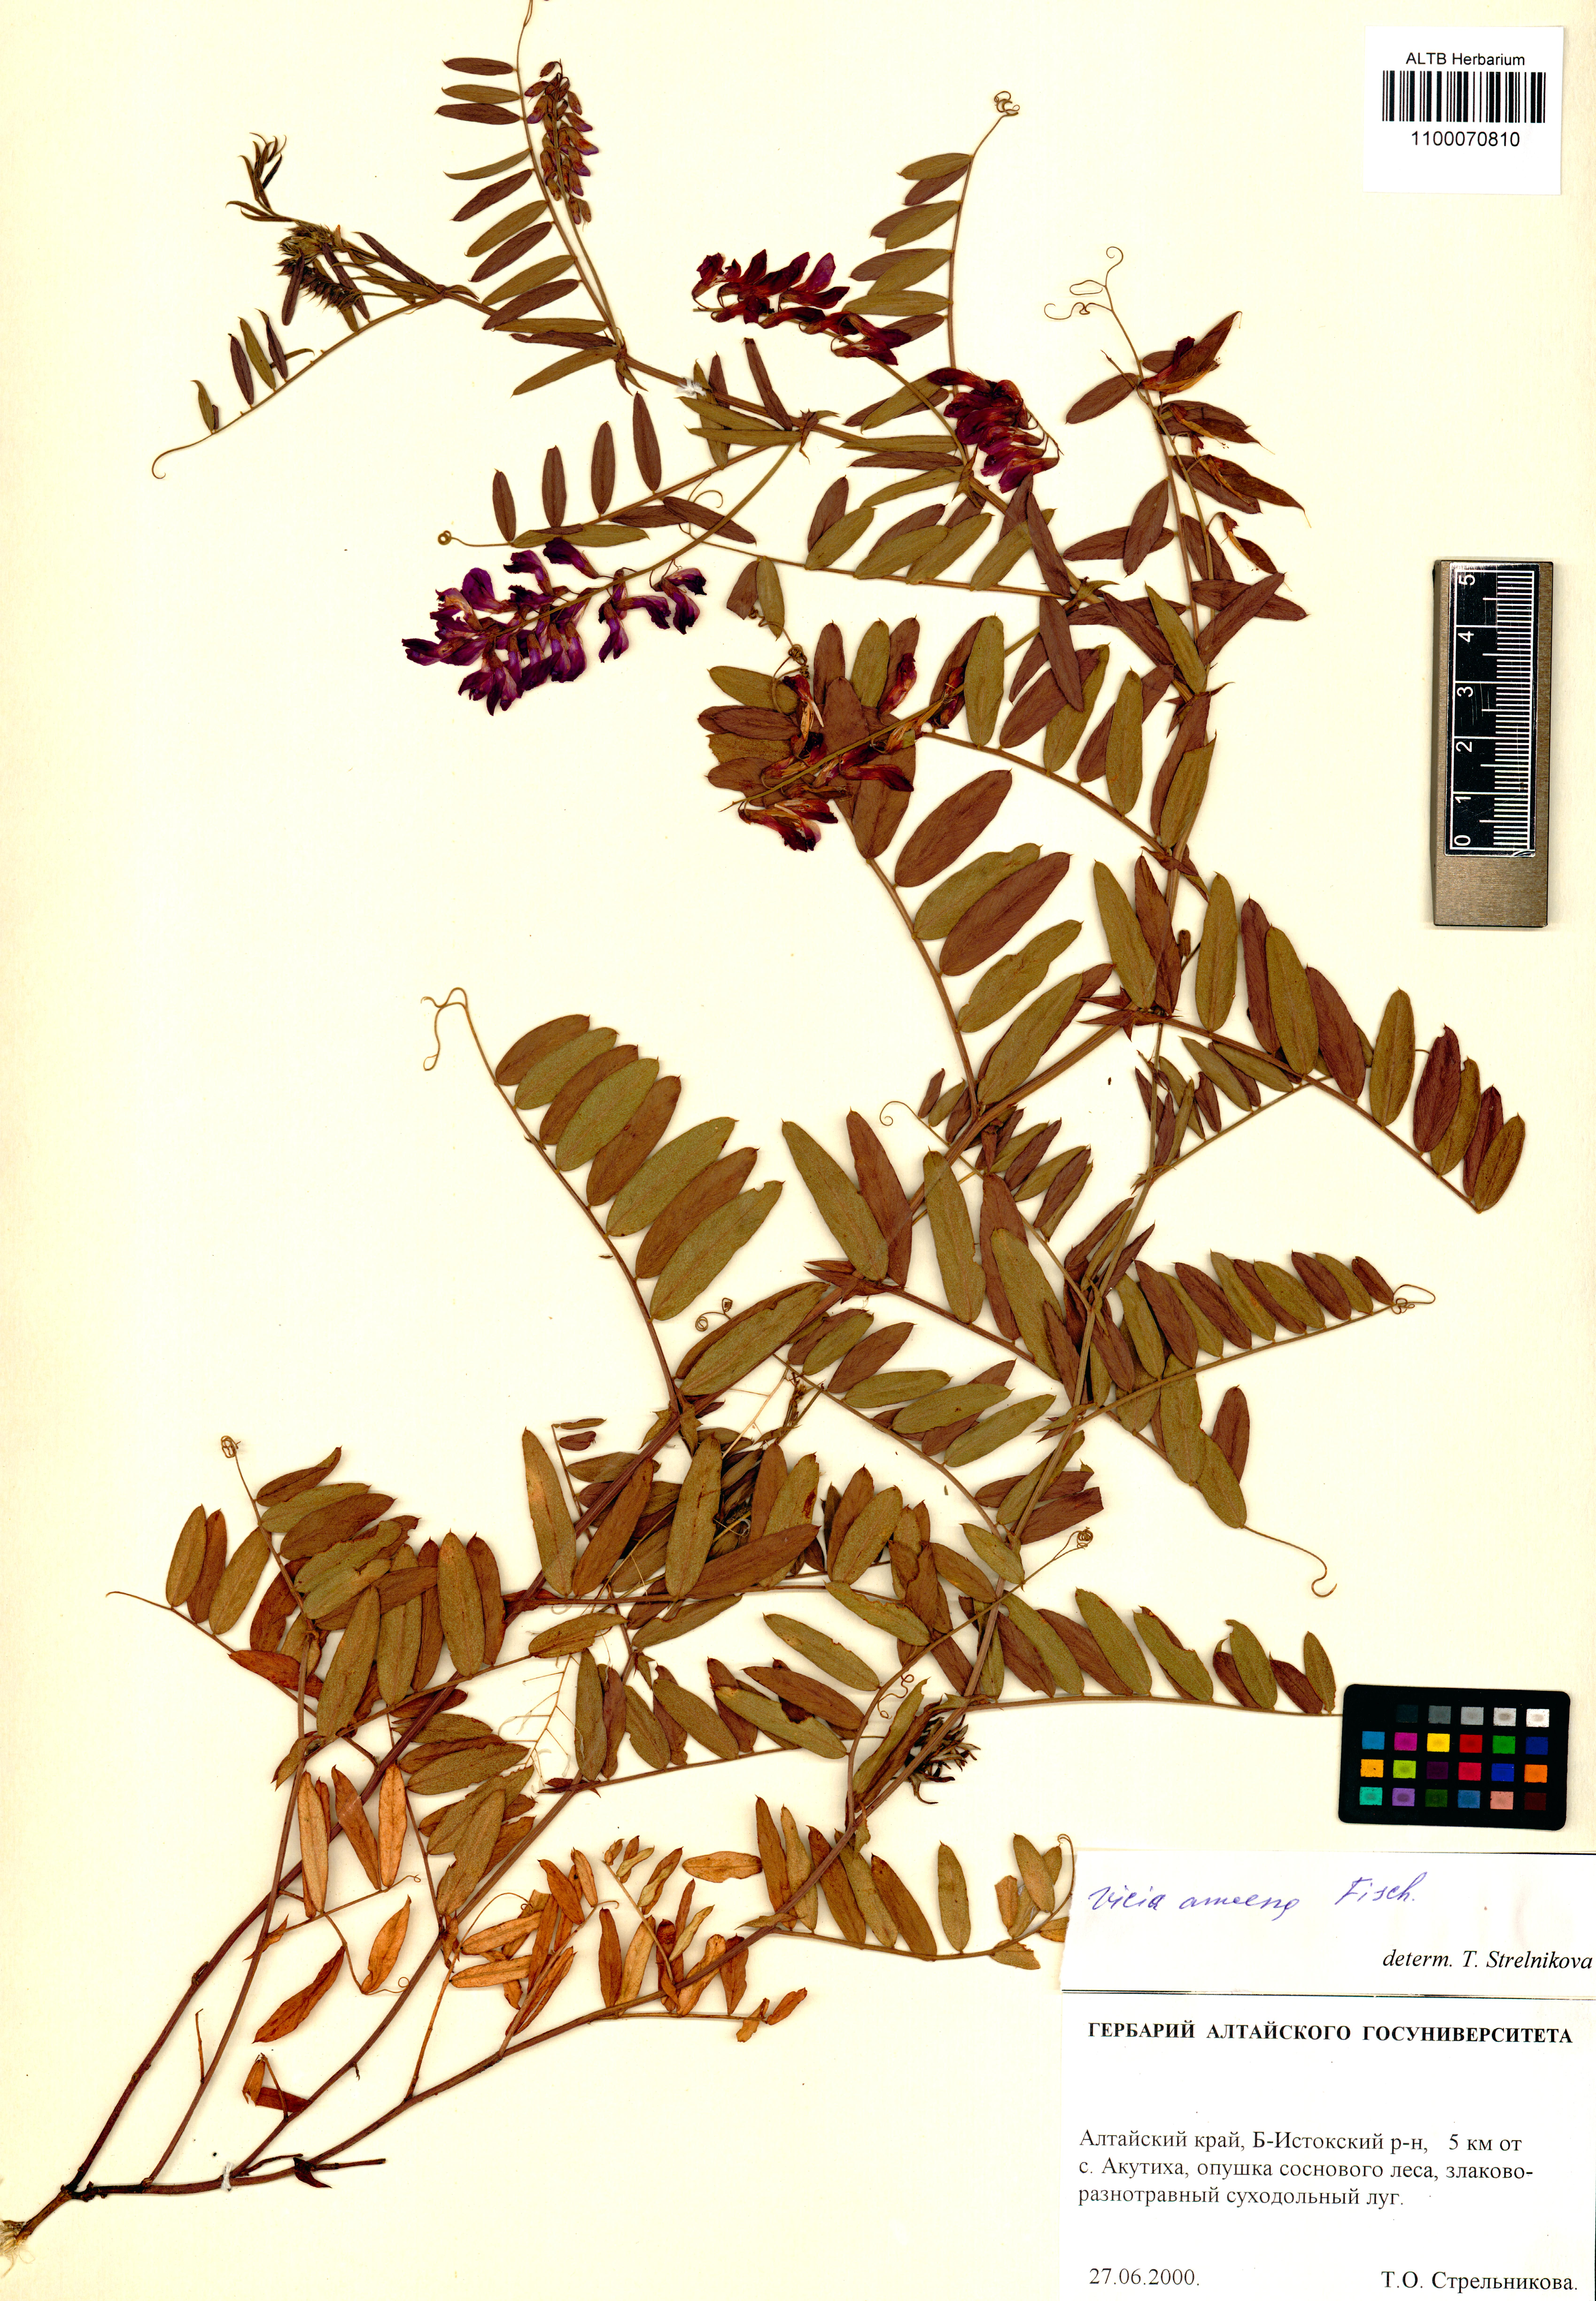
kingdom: Plantae
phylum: Tracheophyta
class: Magnoliopsida
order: Fabales
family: Fabaceae
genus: Vicia
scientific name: Vicia amoena
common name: Cheder ebs
